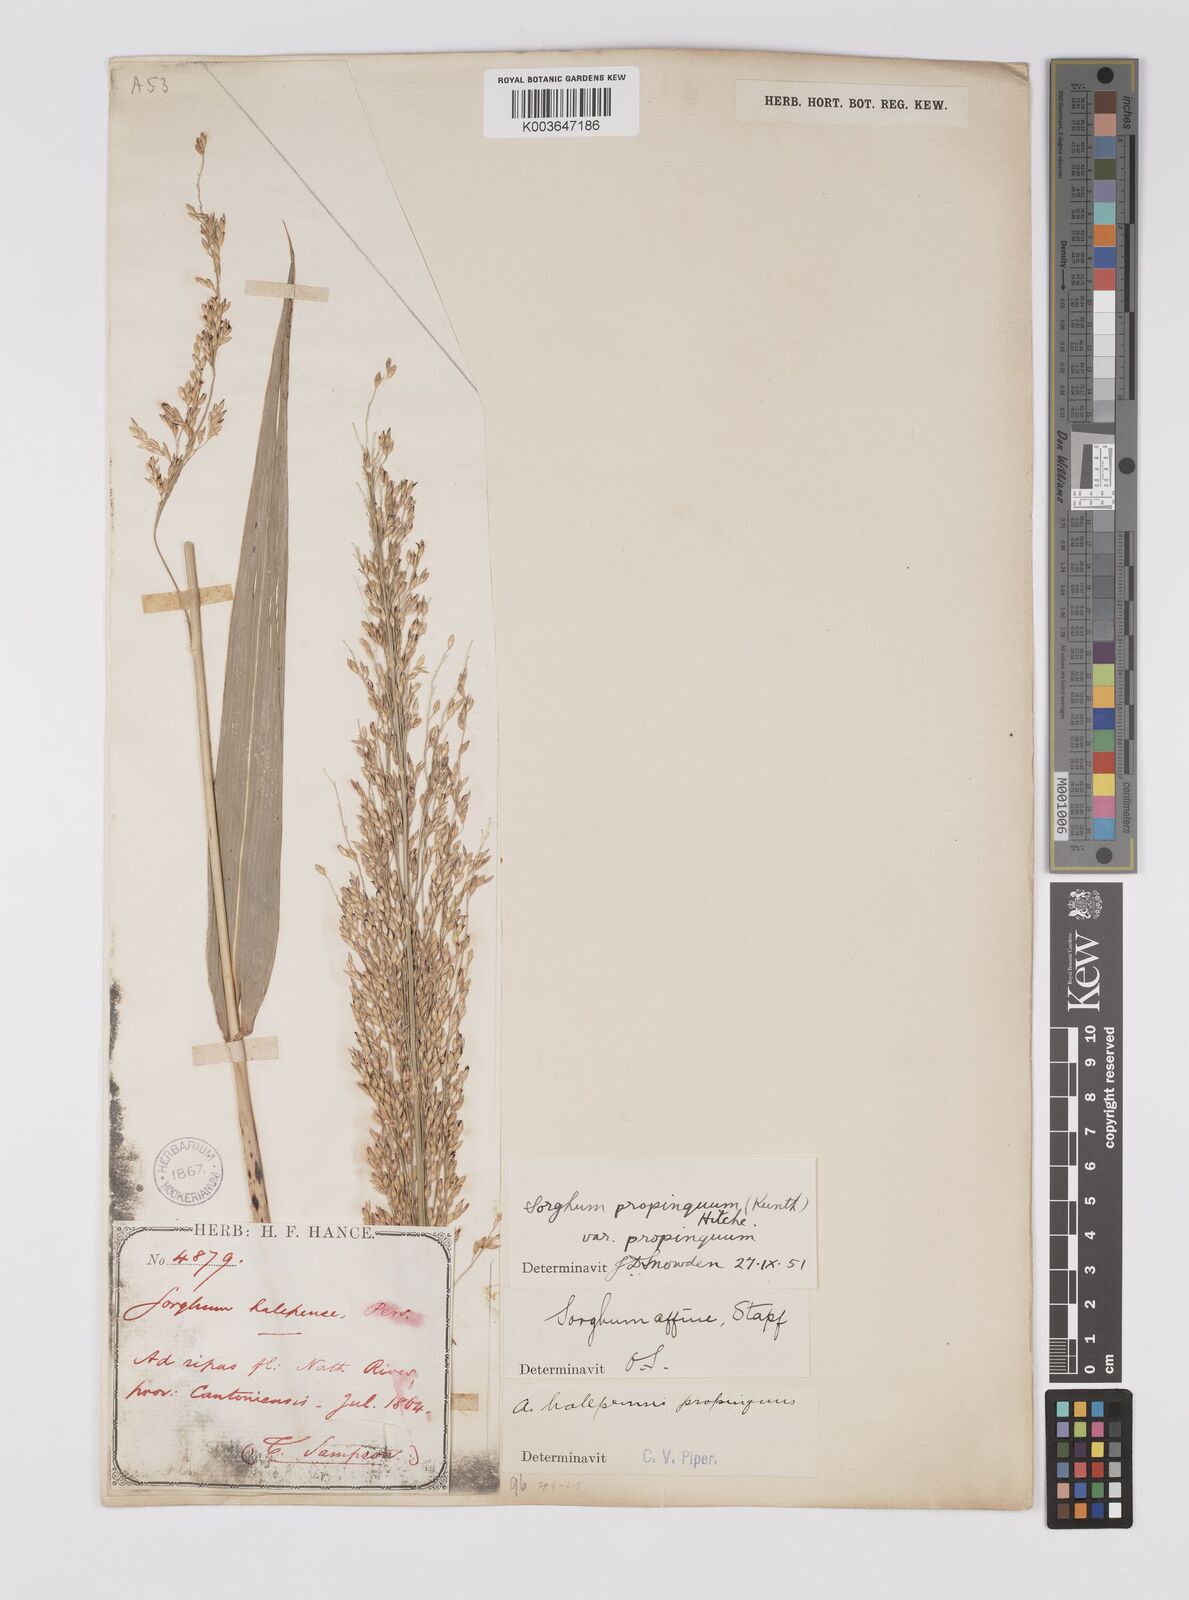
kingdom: Plantae
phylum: Tracheophyta
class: Liliopsida
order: Poales
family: Poaceae
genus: Sorghum
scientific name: Sorghum propinquum
